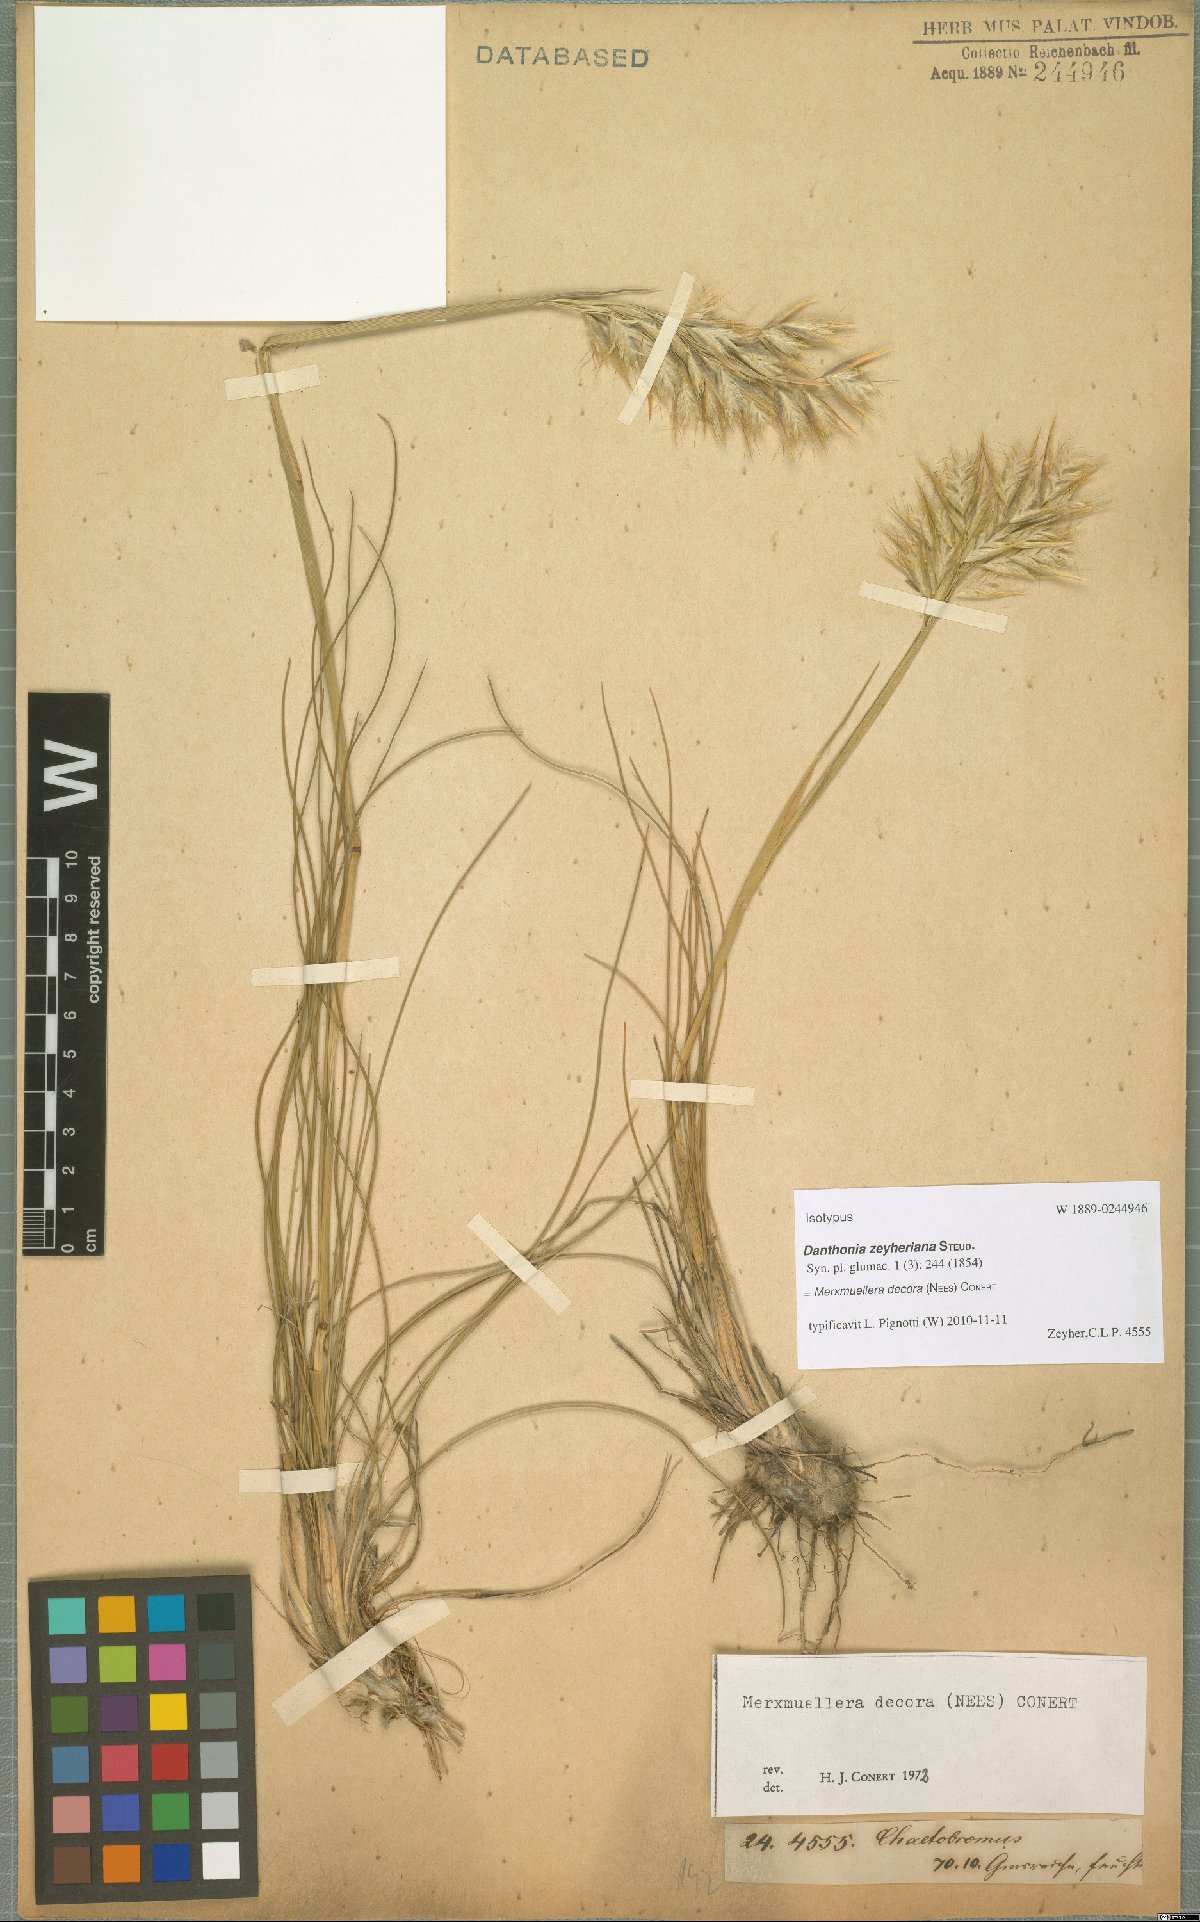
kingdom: Plantae
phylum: Tracheophyta
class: Liliopsida
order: Poales
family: Poaceae
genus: Geochloa
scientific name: Geochloa decora
